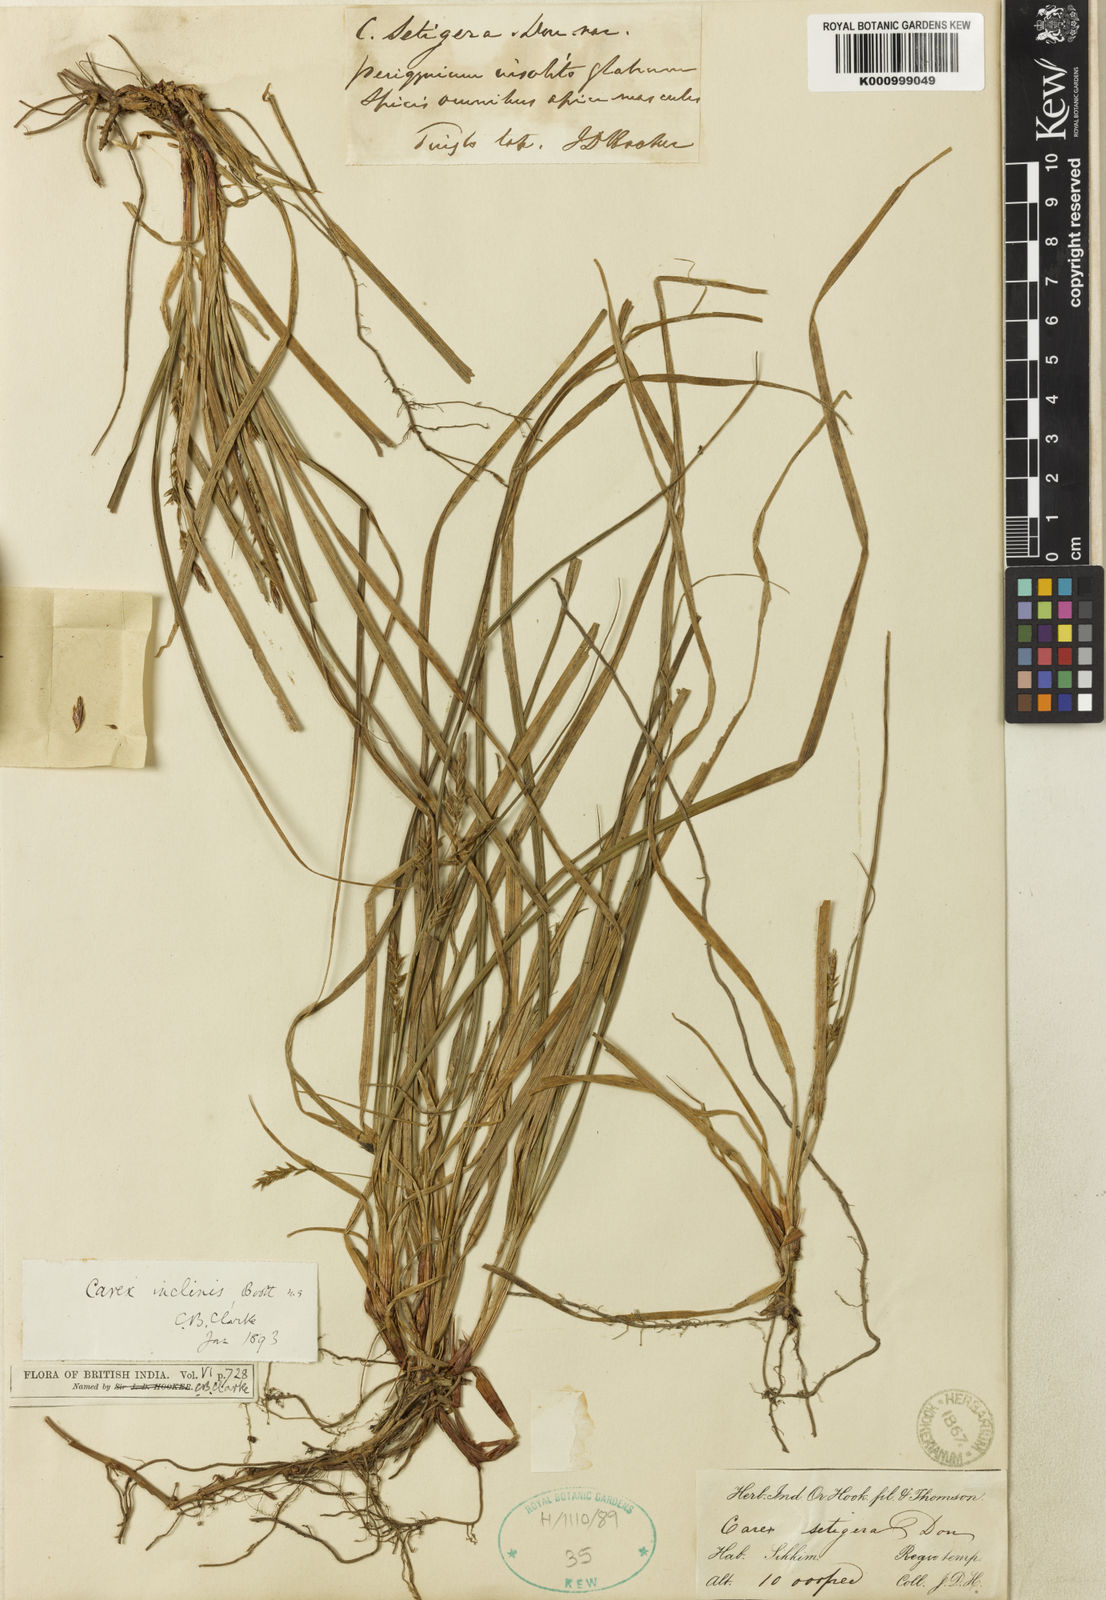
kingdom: Plantae
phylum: Tracheophyta
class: Liliopsida
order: Poales
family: Cyperaceae
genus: Carex
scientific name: Carex inclinis
